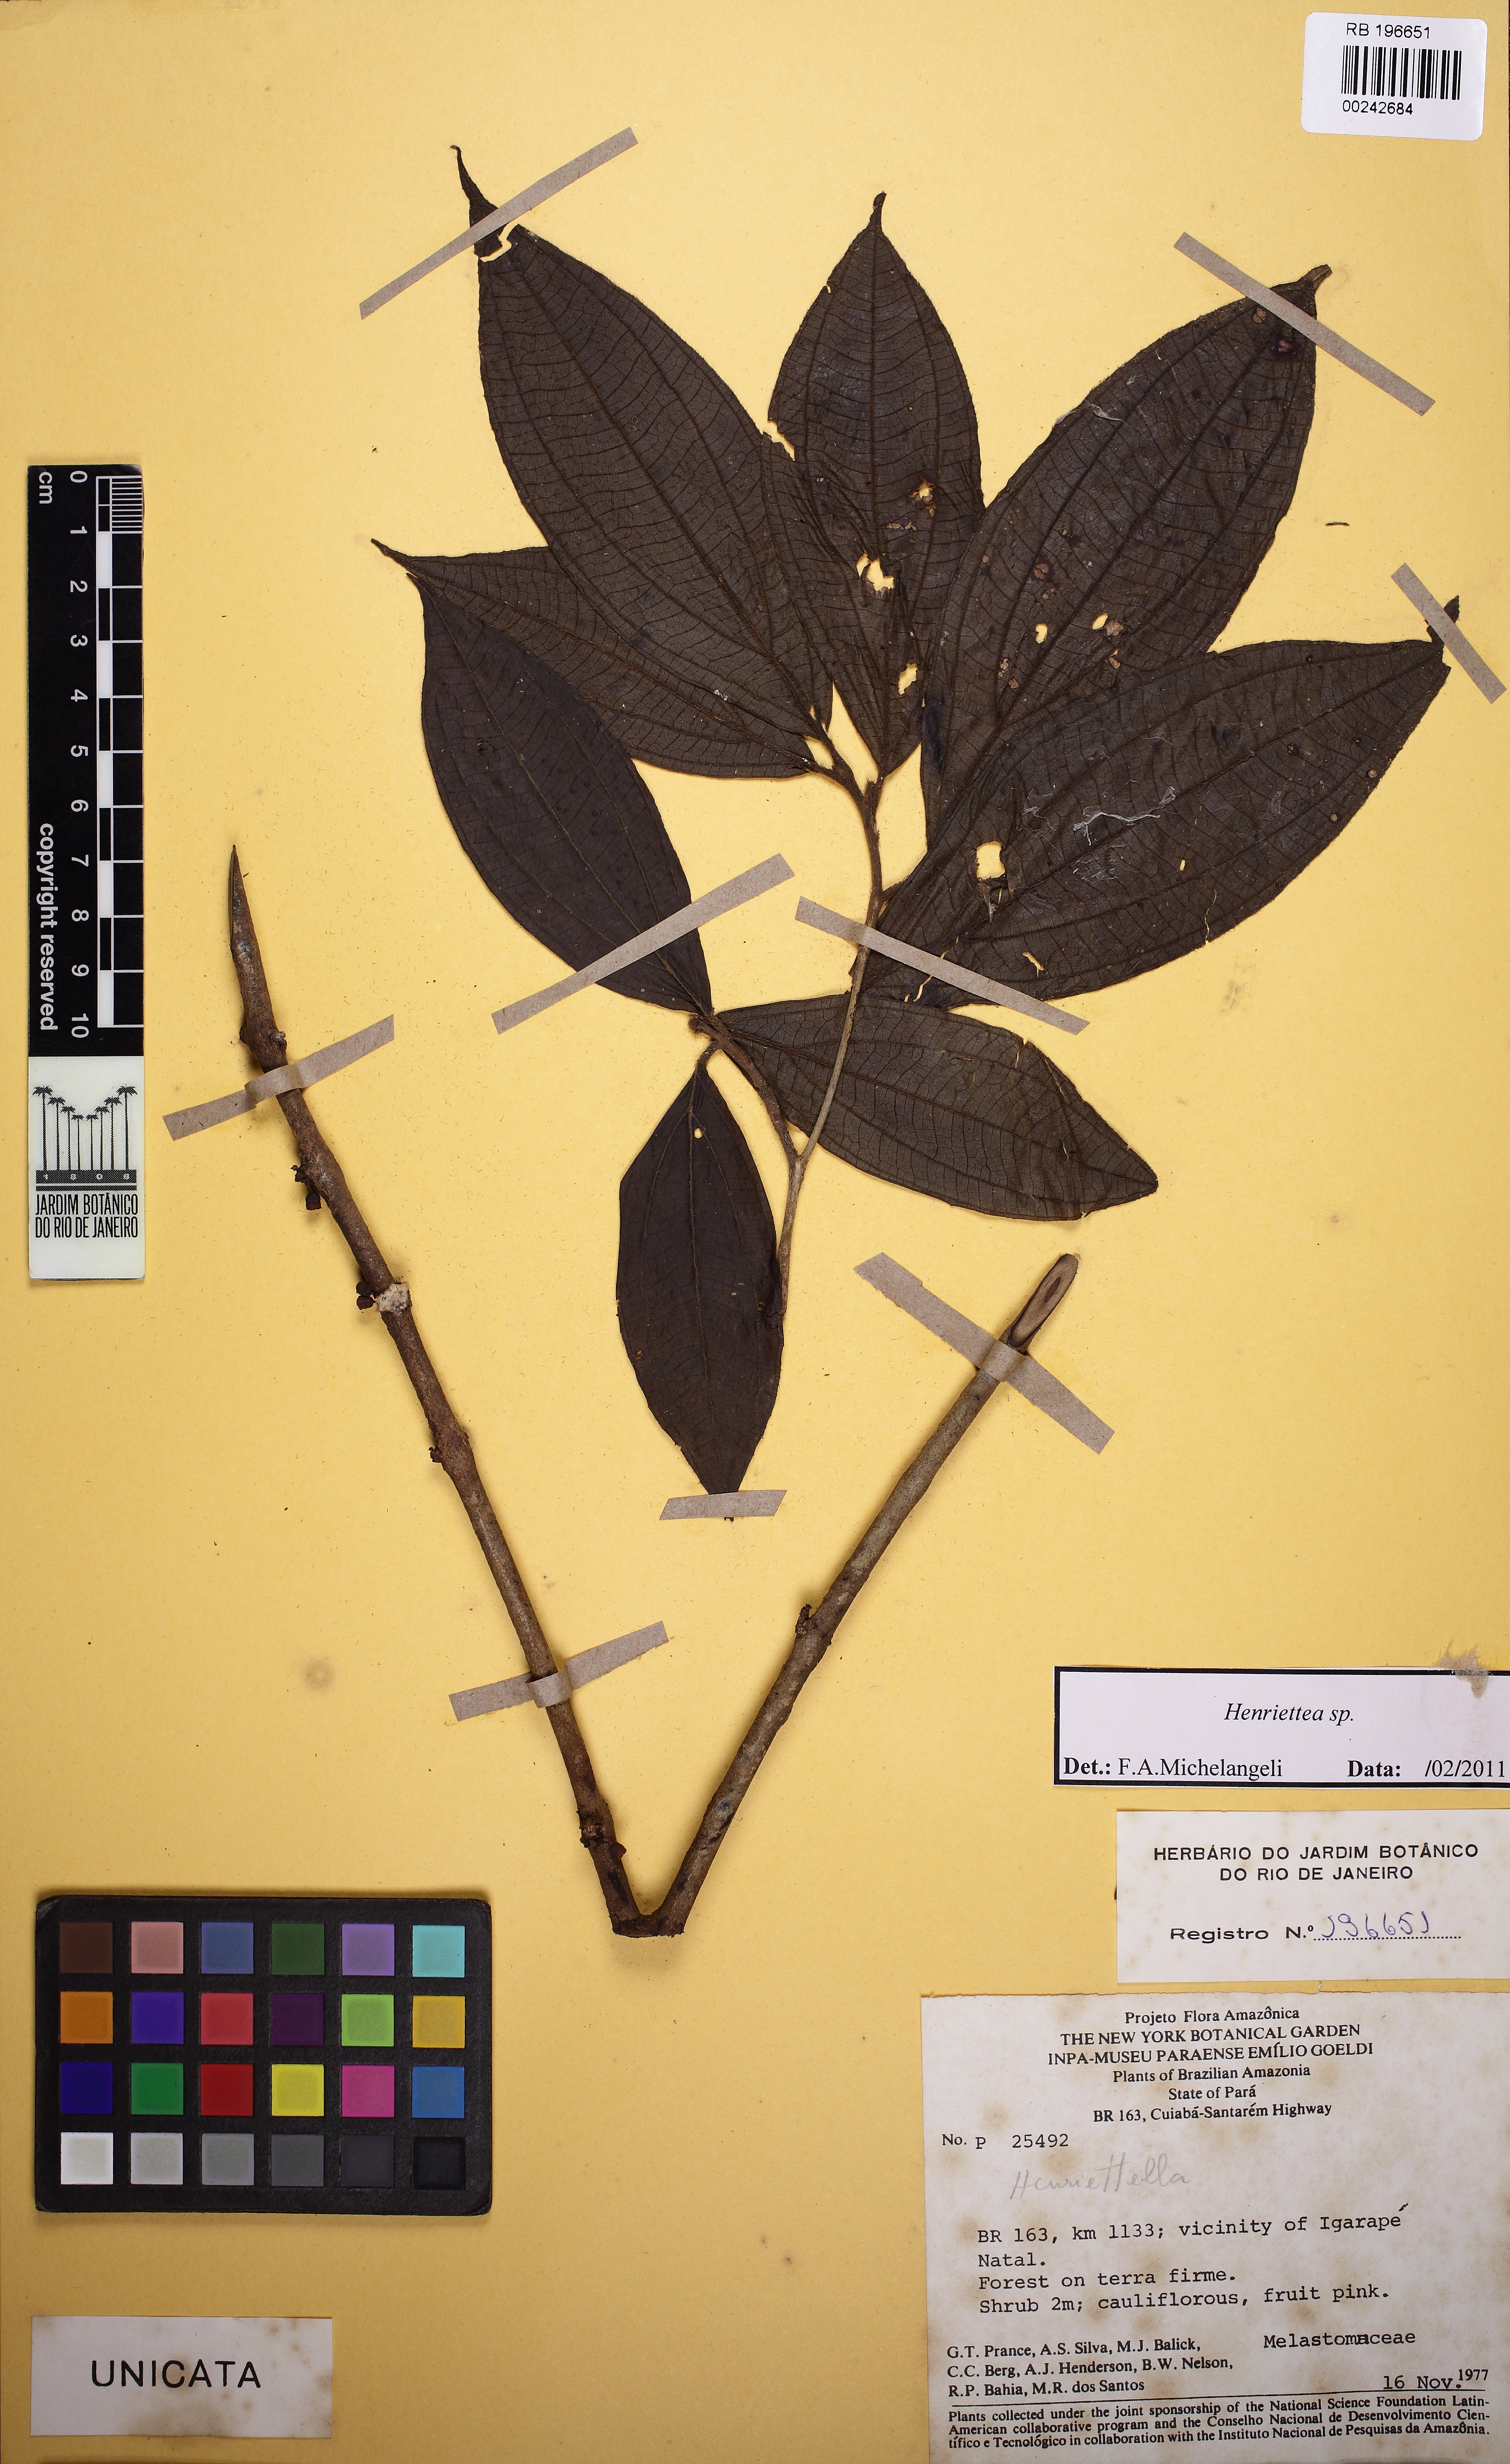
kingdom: Plantae
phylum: Tracheophyta
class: Magnoliopsida
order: Myrtales
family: Melastomataceae
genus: Henriettea
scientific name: Henriettea
